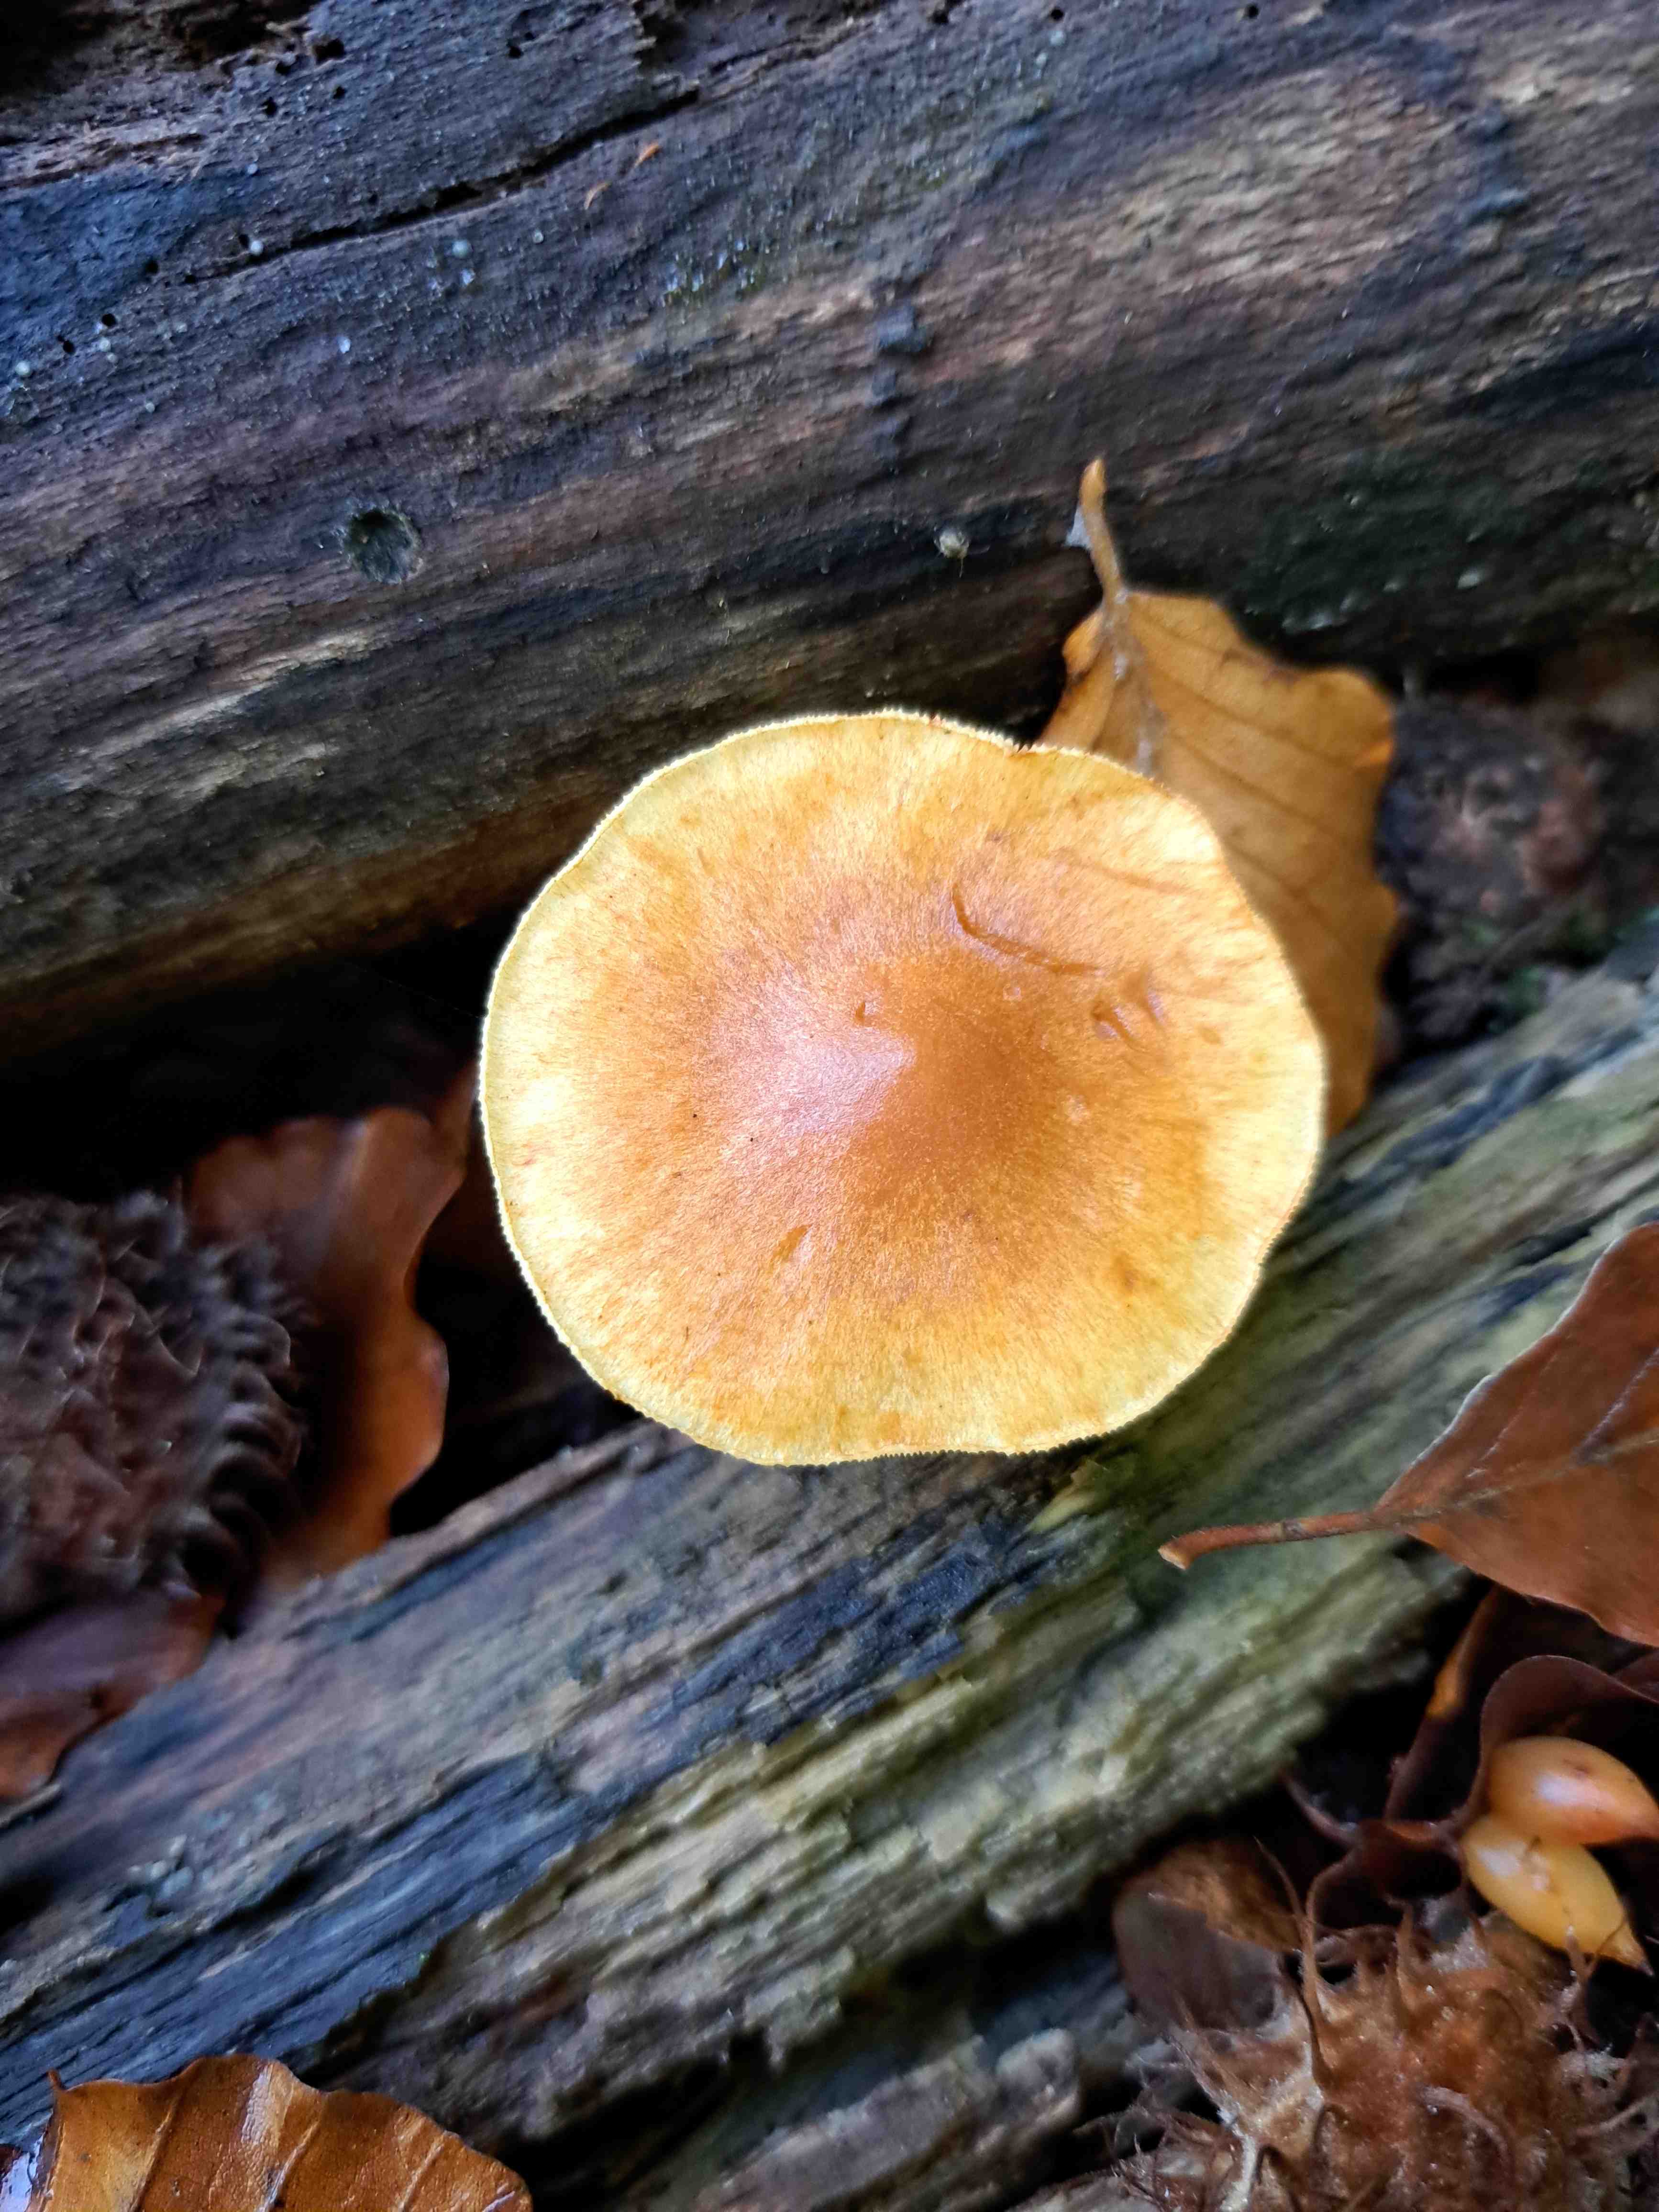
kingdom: Fungi
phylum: Basidiomycota
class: Agaricomycetes
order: Agaricales
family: Hymenogastraceae
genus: Gymnopilus
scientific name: Gymnopilus penetrans
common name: plettet flammehat
